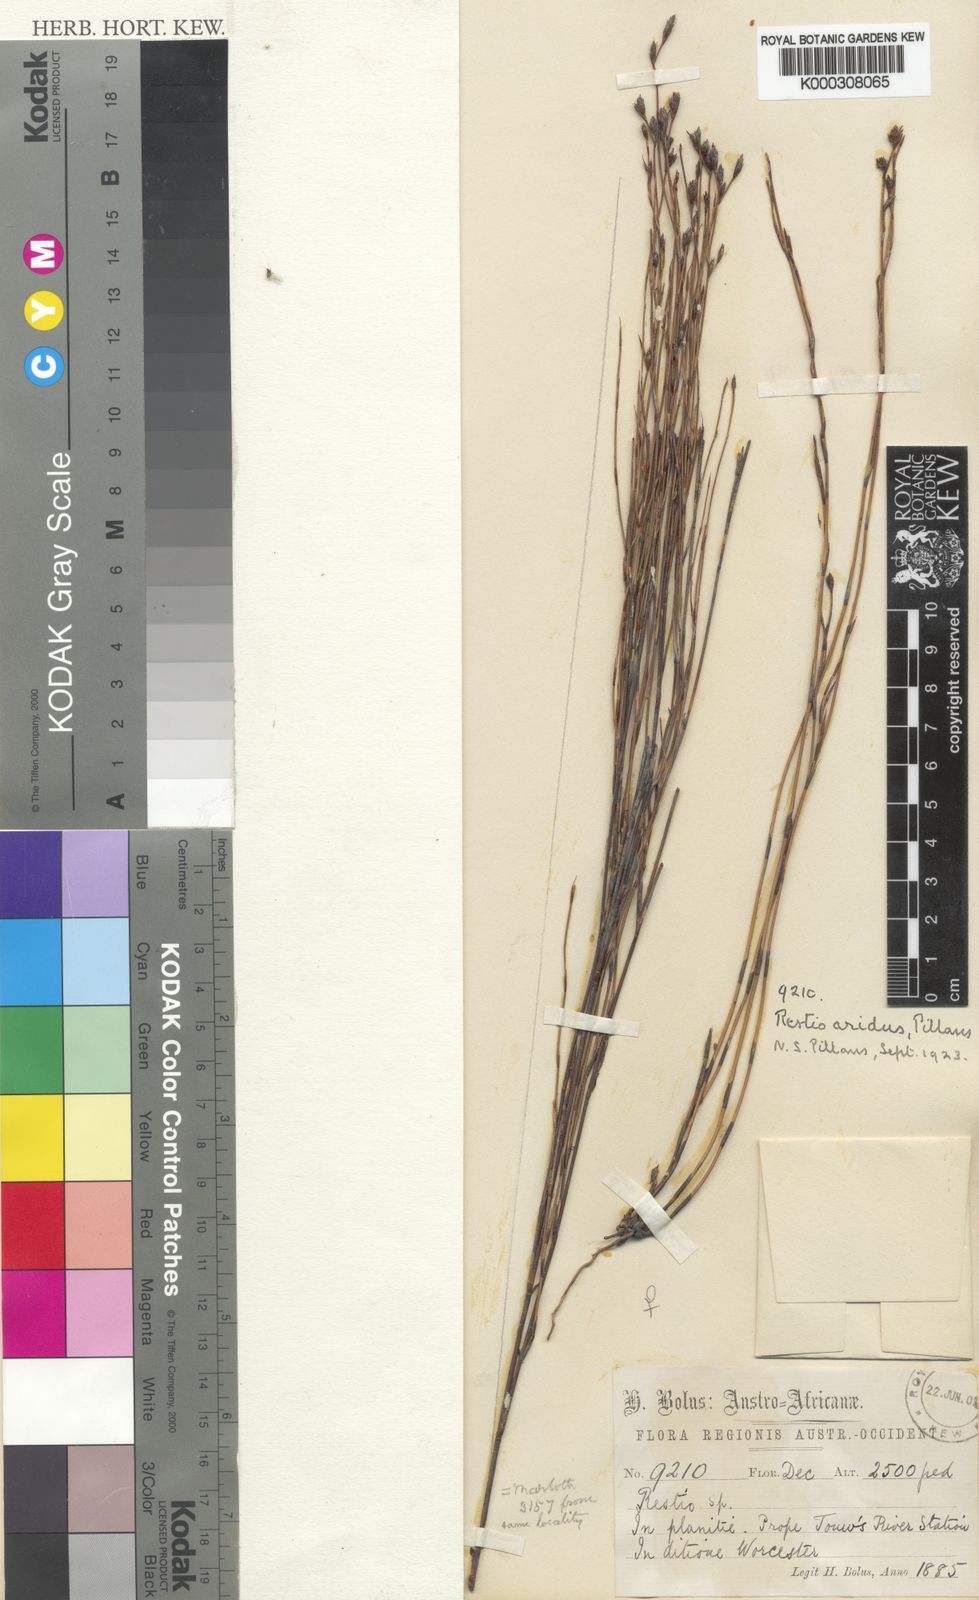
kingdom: Plantae
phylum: Tracheophyta
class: Liliopsida
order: Poales
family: Restionaceae
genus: Restio
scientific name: Restio aridus
